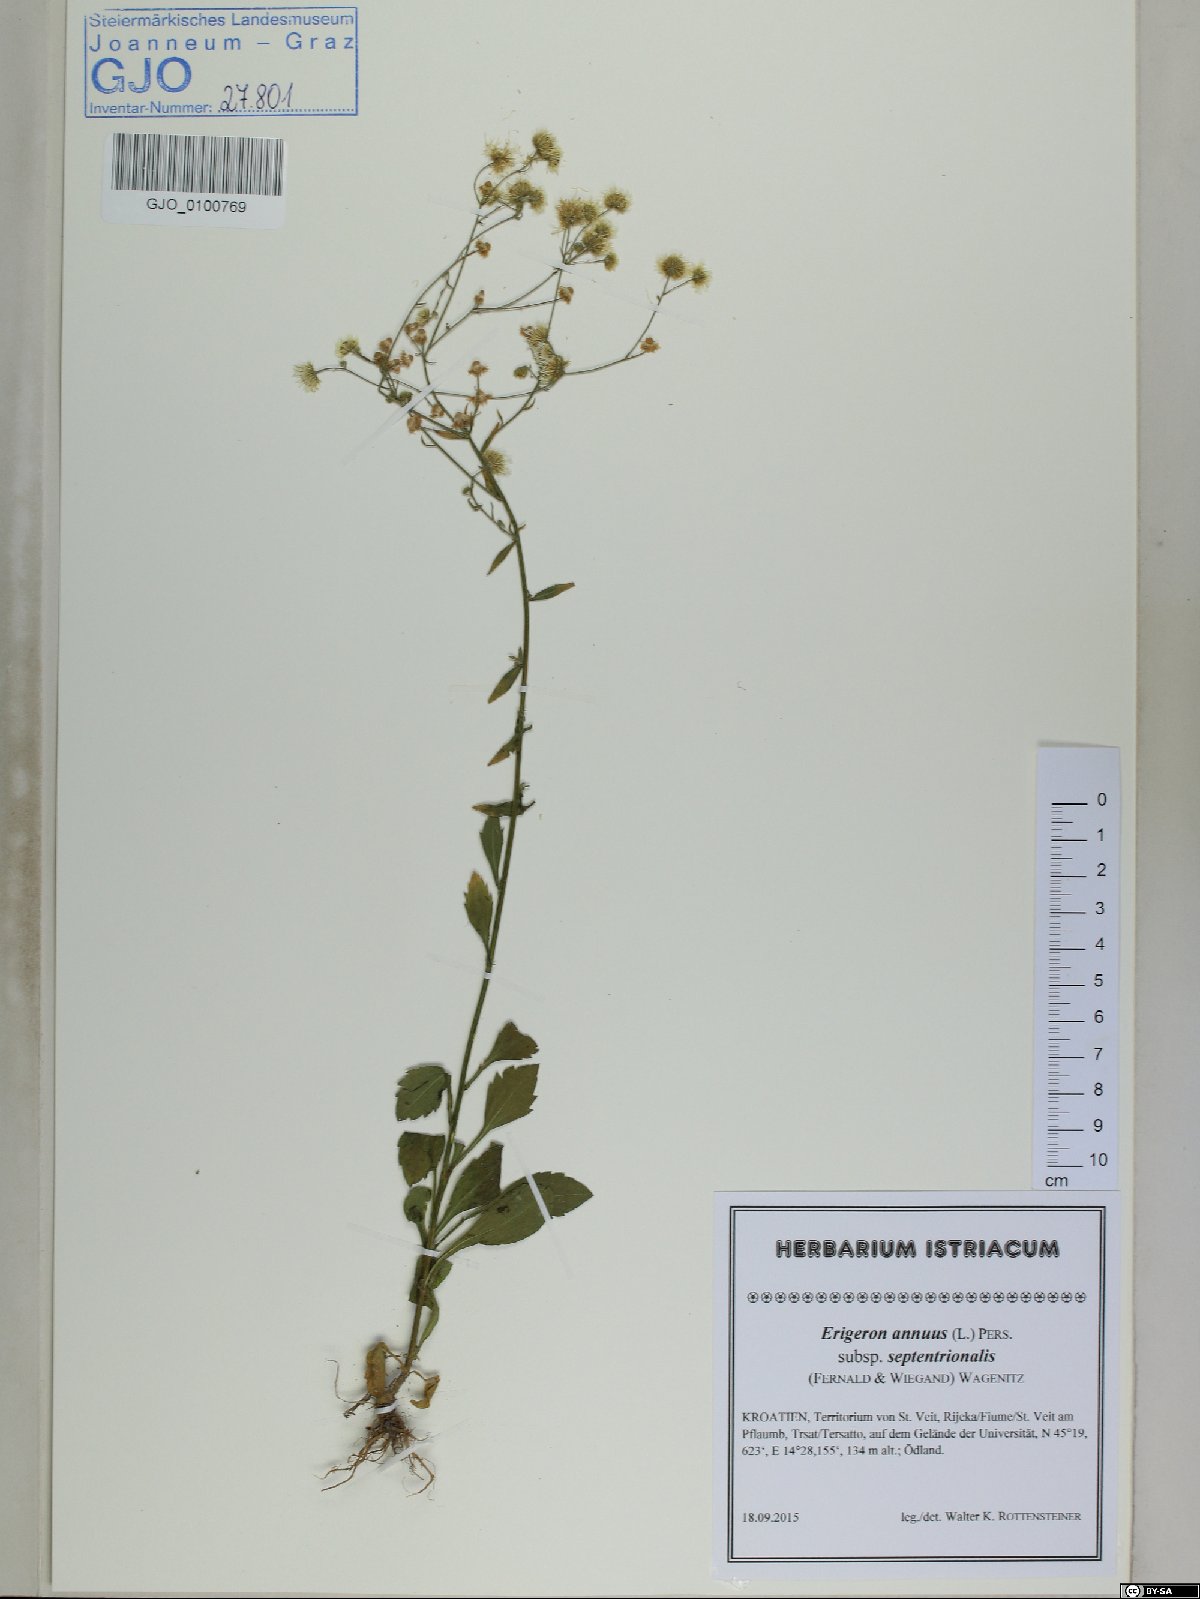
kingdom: Plantae
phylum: Tracheophyta
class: Magnoliopsida
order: Asterales
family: Asteraceae
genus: Erigeron
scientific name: Erigeron annuus
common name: Tall fleabane
